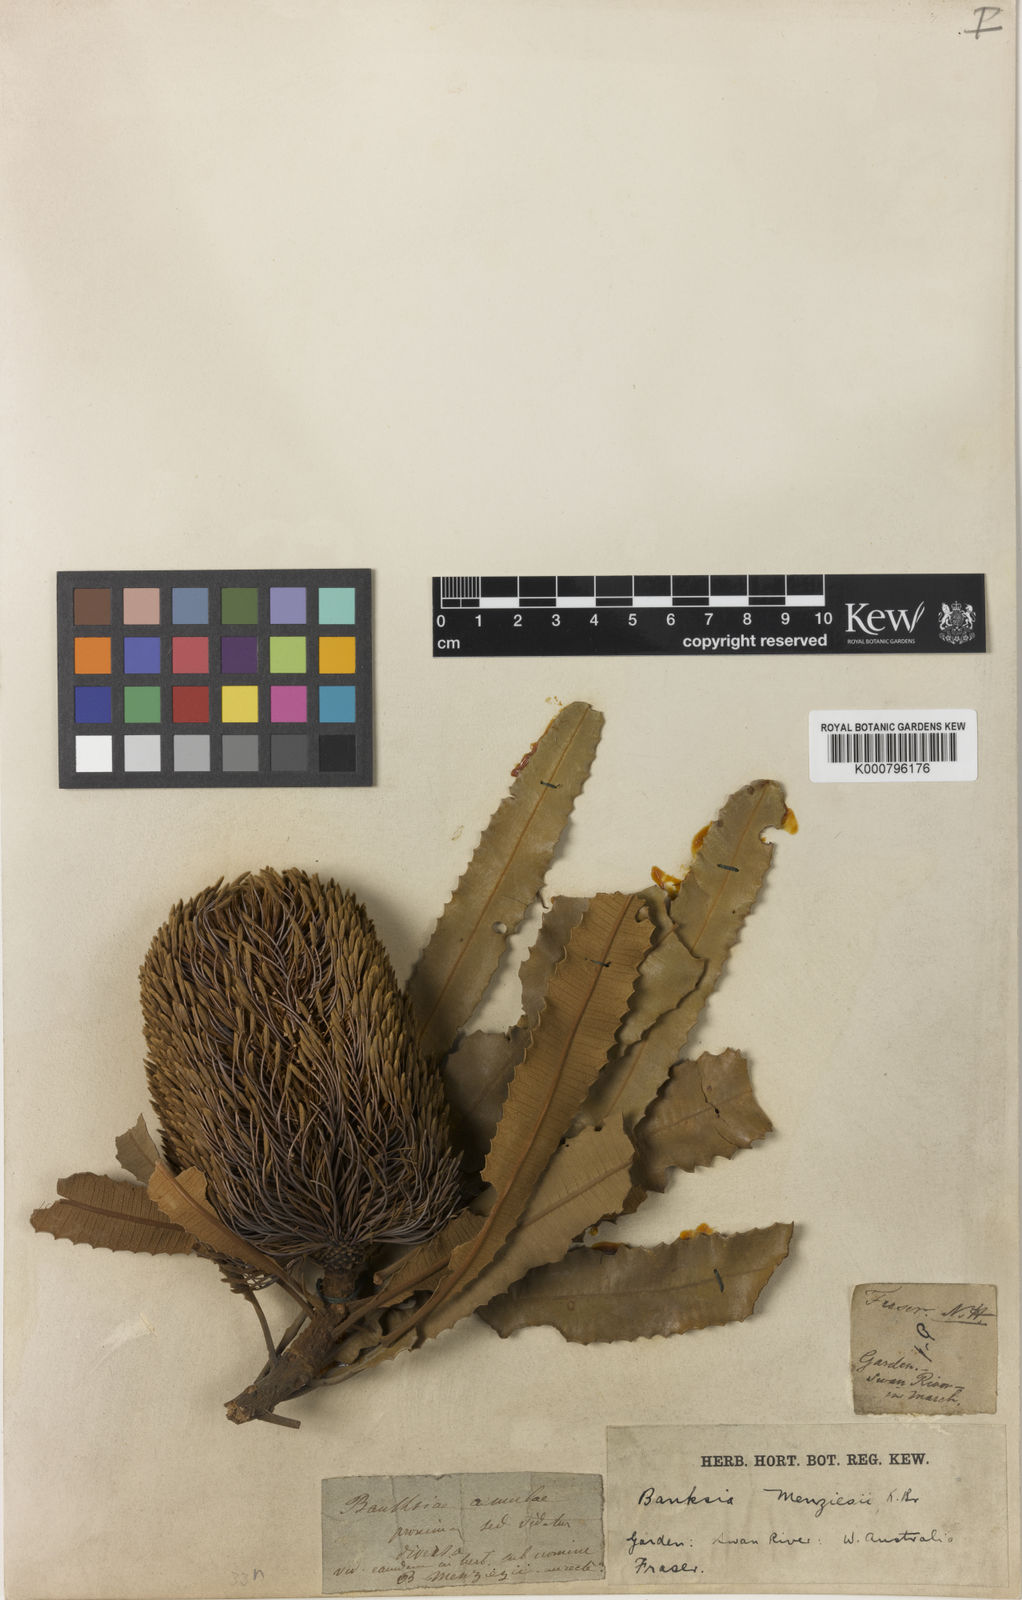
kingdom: Plantae
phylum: Tracheophyta
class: Magnoliopsida
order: Proteales
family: Proteaceae
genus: Banksia
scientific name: Banksia menziesii
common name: Menzie's banksia
